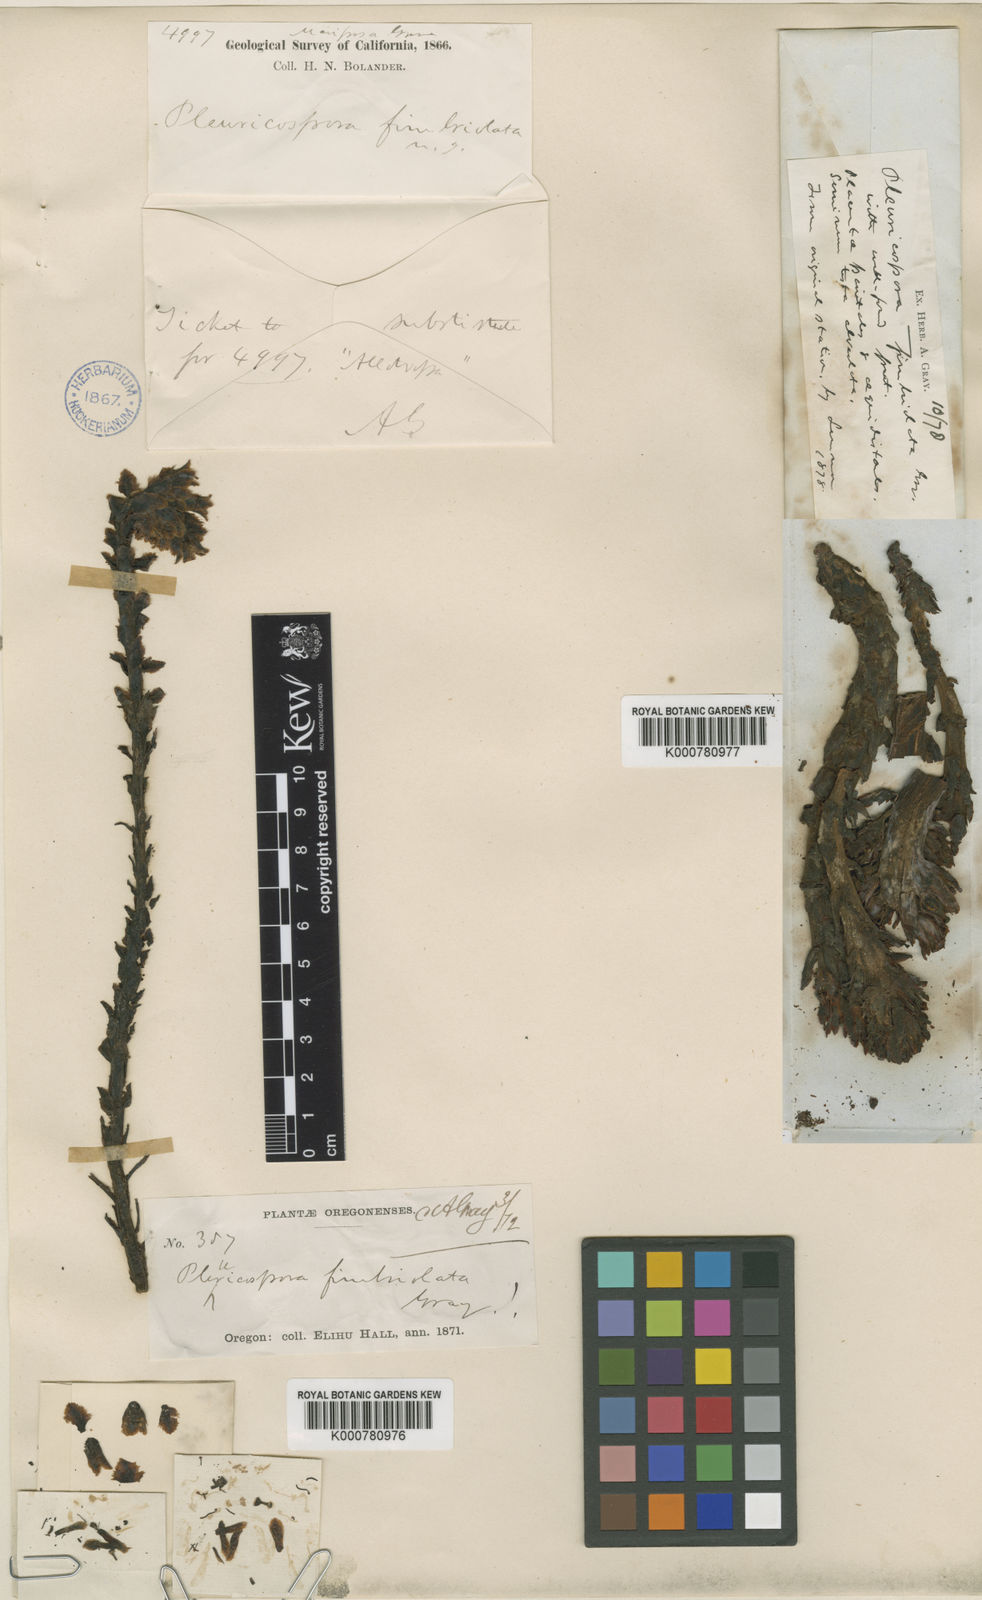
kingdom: Plantae
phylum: Tracheophyta
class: Magnoliopsida
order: Ericales
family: Ericaceae
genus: Pleuricospora
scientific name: Pleuricospora fimbriolata
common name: Fringed pinesap
